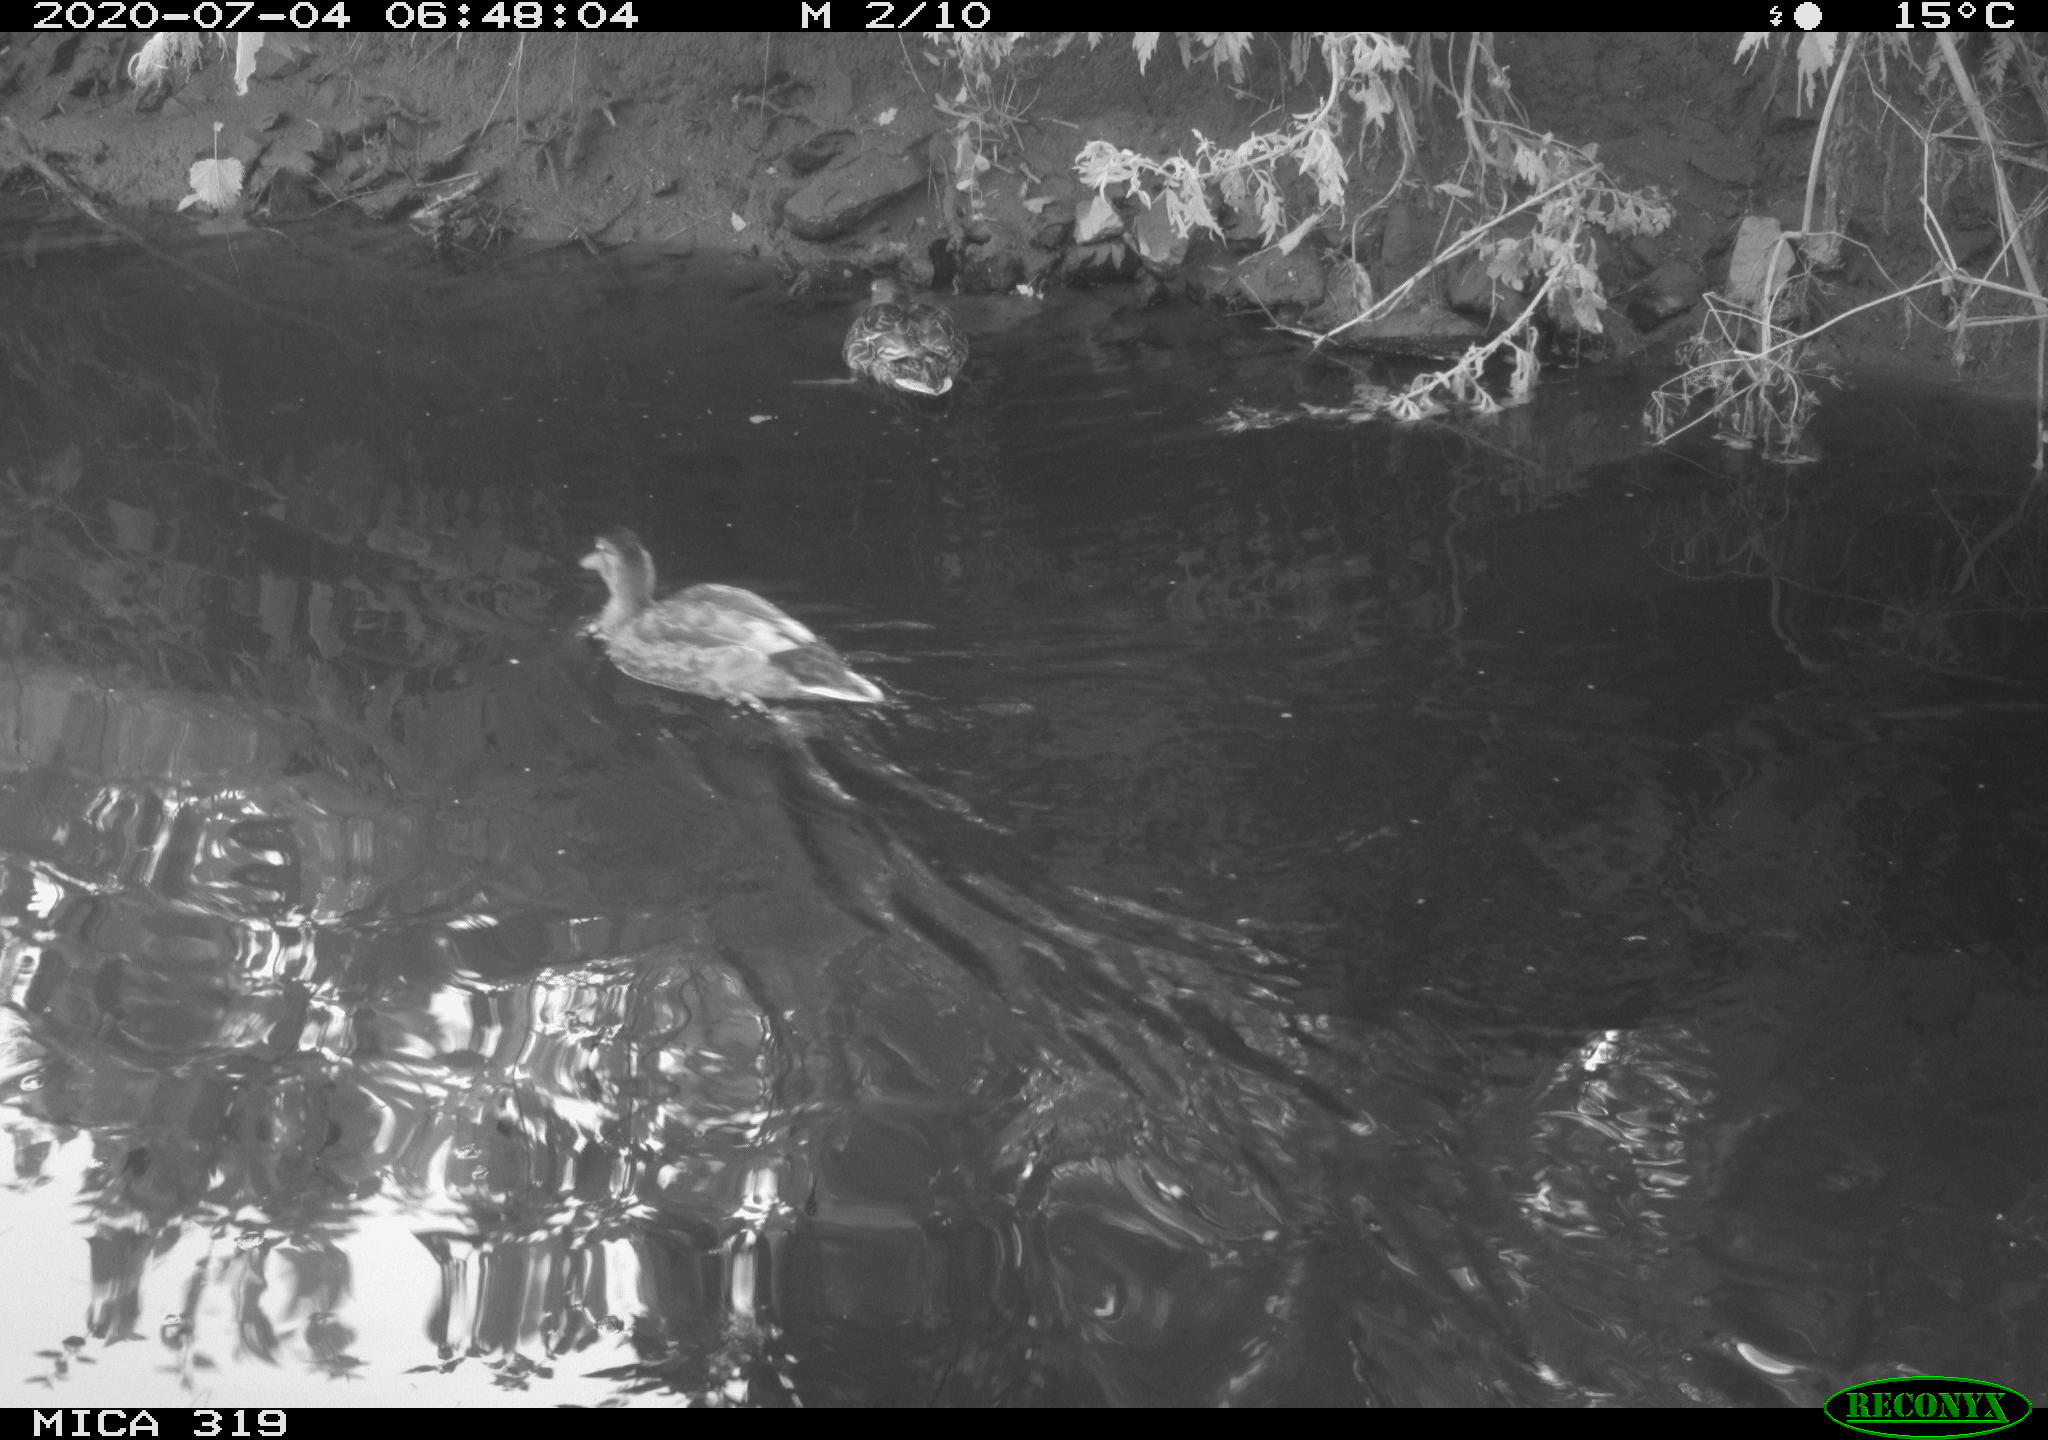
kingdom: Animalia
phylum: Chordata
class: Aves
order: Anseriformes
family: Anatidae
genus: Anas
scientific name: Anas platyrhynchos
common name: Mallard
